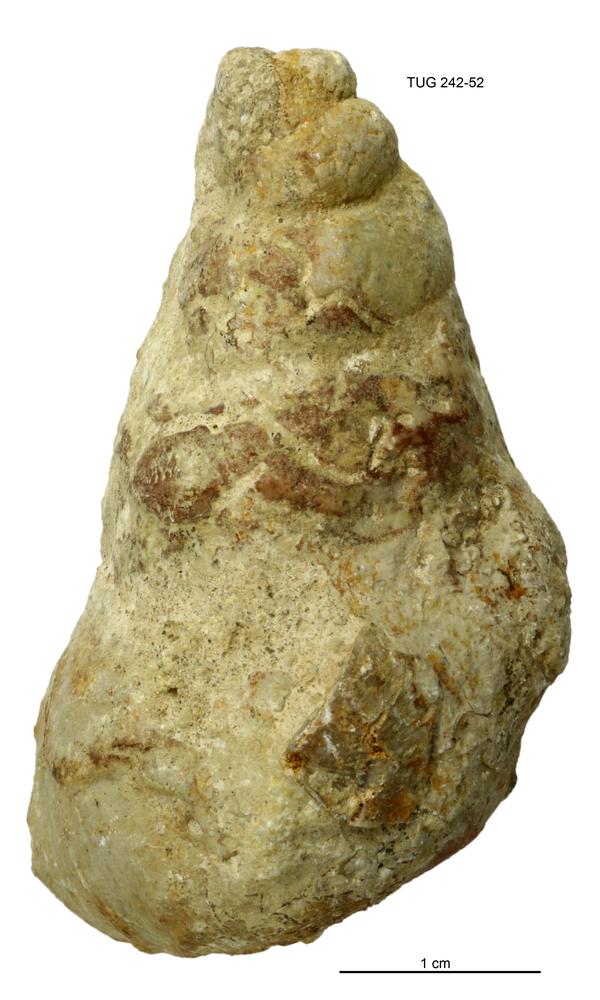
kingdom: Animalia
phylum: Mollusca
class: Gastropoda
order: Pleurotomariida
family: Murchisoniidae
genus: Murchisonia
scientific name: Murchisonia insignis
